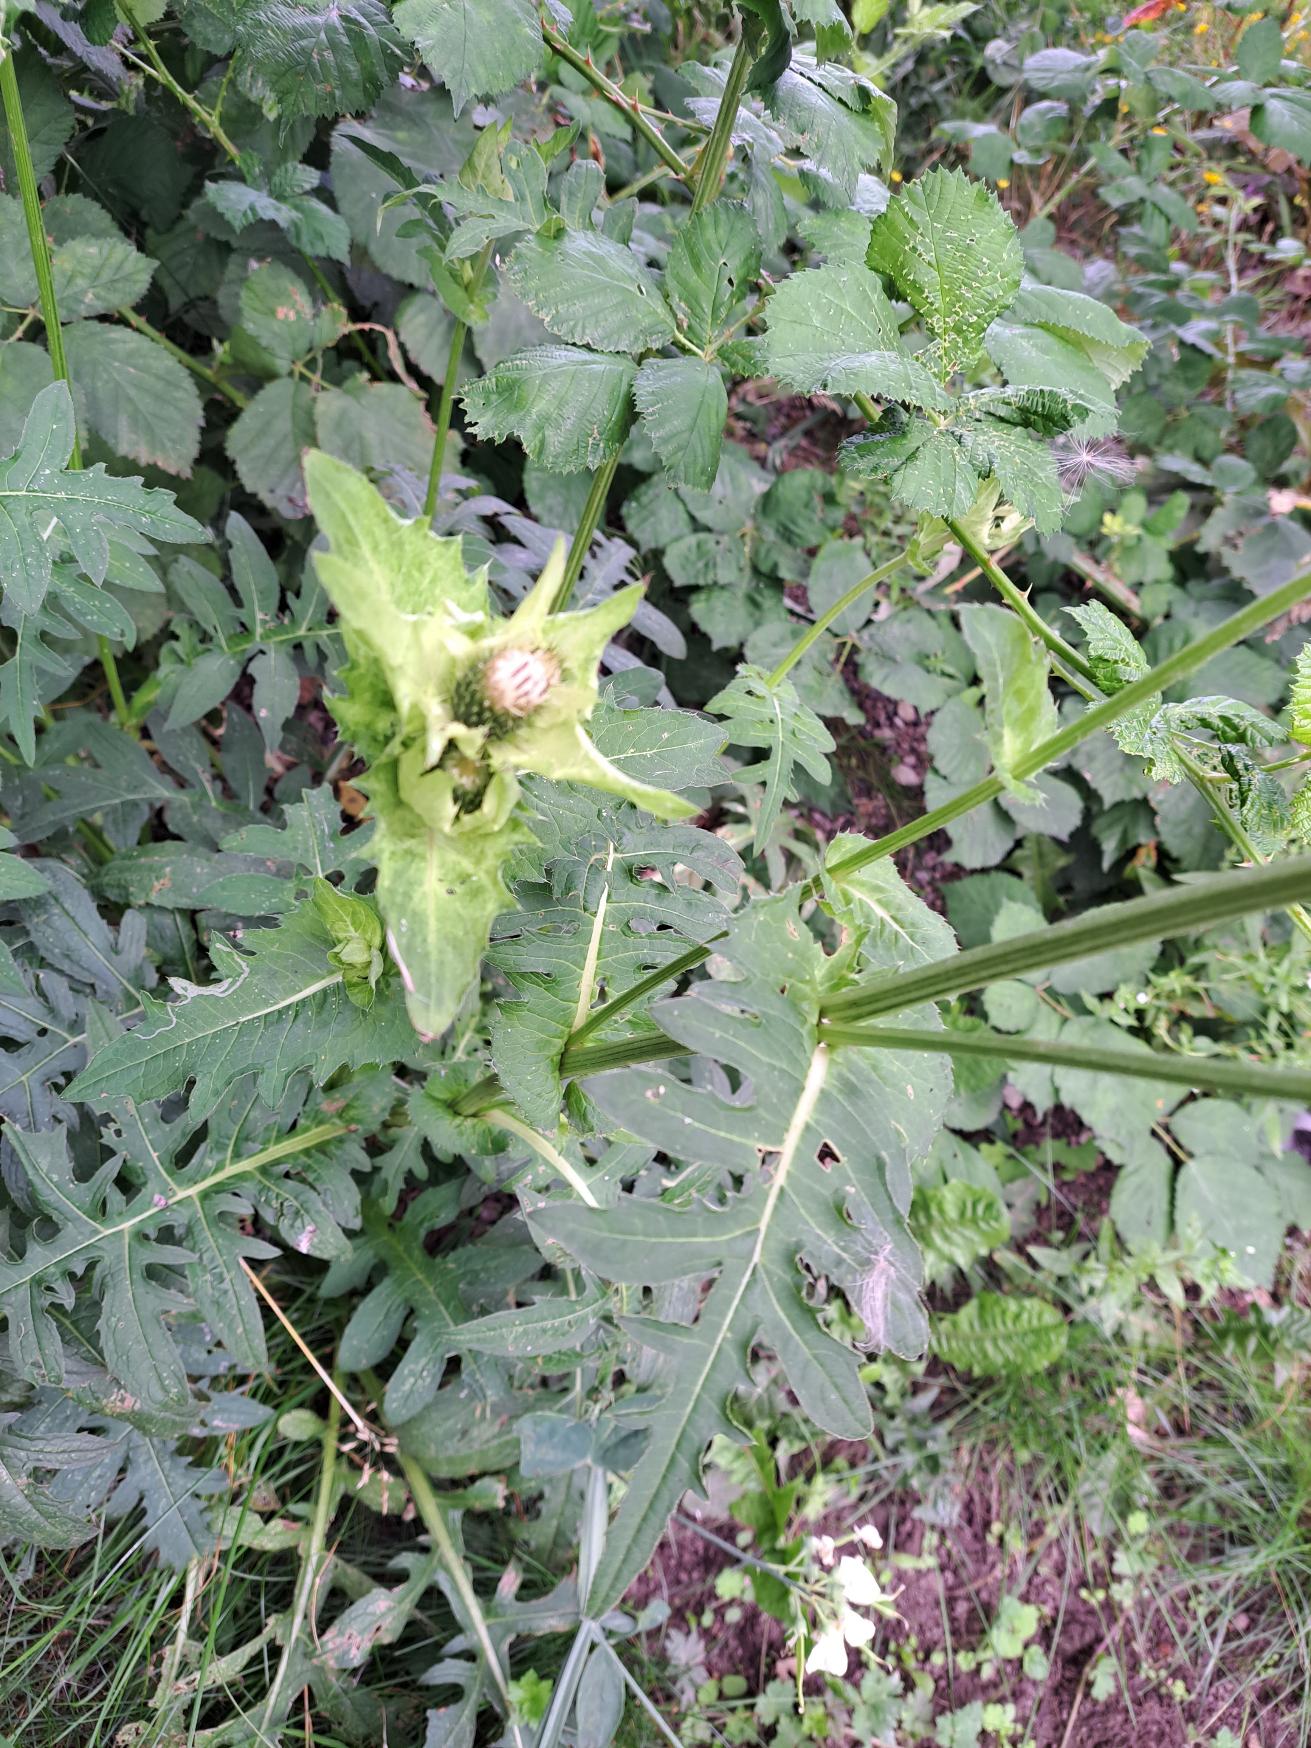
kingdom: Plantae
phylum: Tracheophyta
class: Magnoliopsida
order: Asterales
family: Asteraceae
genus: Cirsium
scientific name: Cirsium oleraceum
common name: Kål-tidsel
